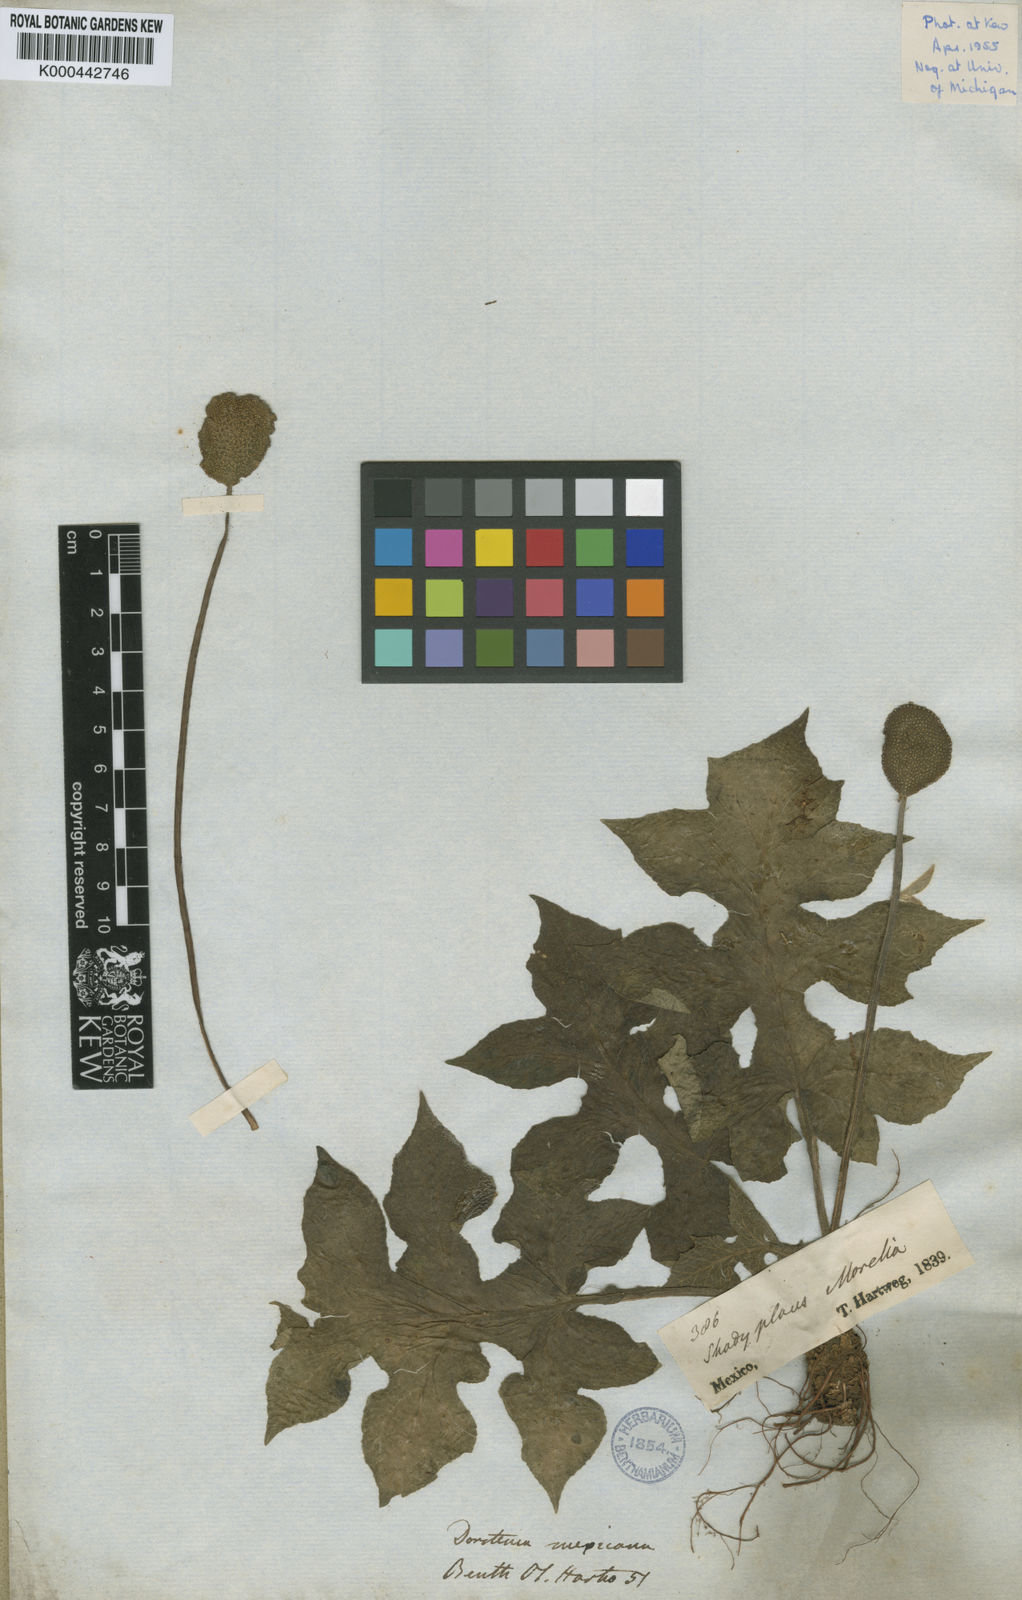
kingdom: Plantae
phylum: Tracheophyta
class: Magnoliopsida
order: Rosales
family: Moraceae
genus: Dorstenia
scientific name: Dorstenia drakena
